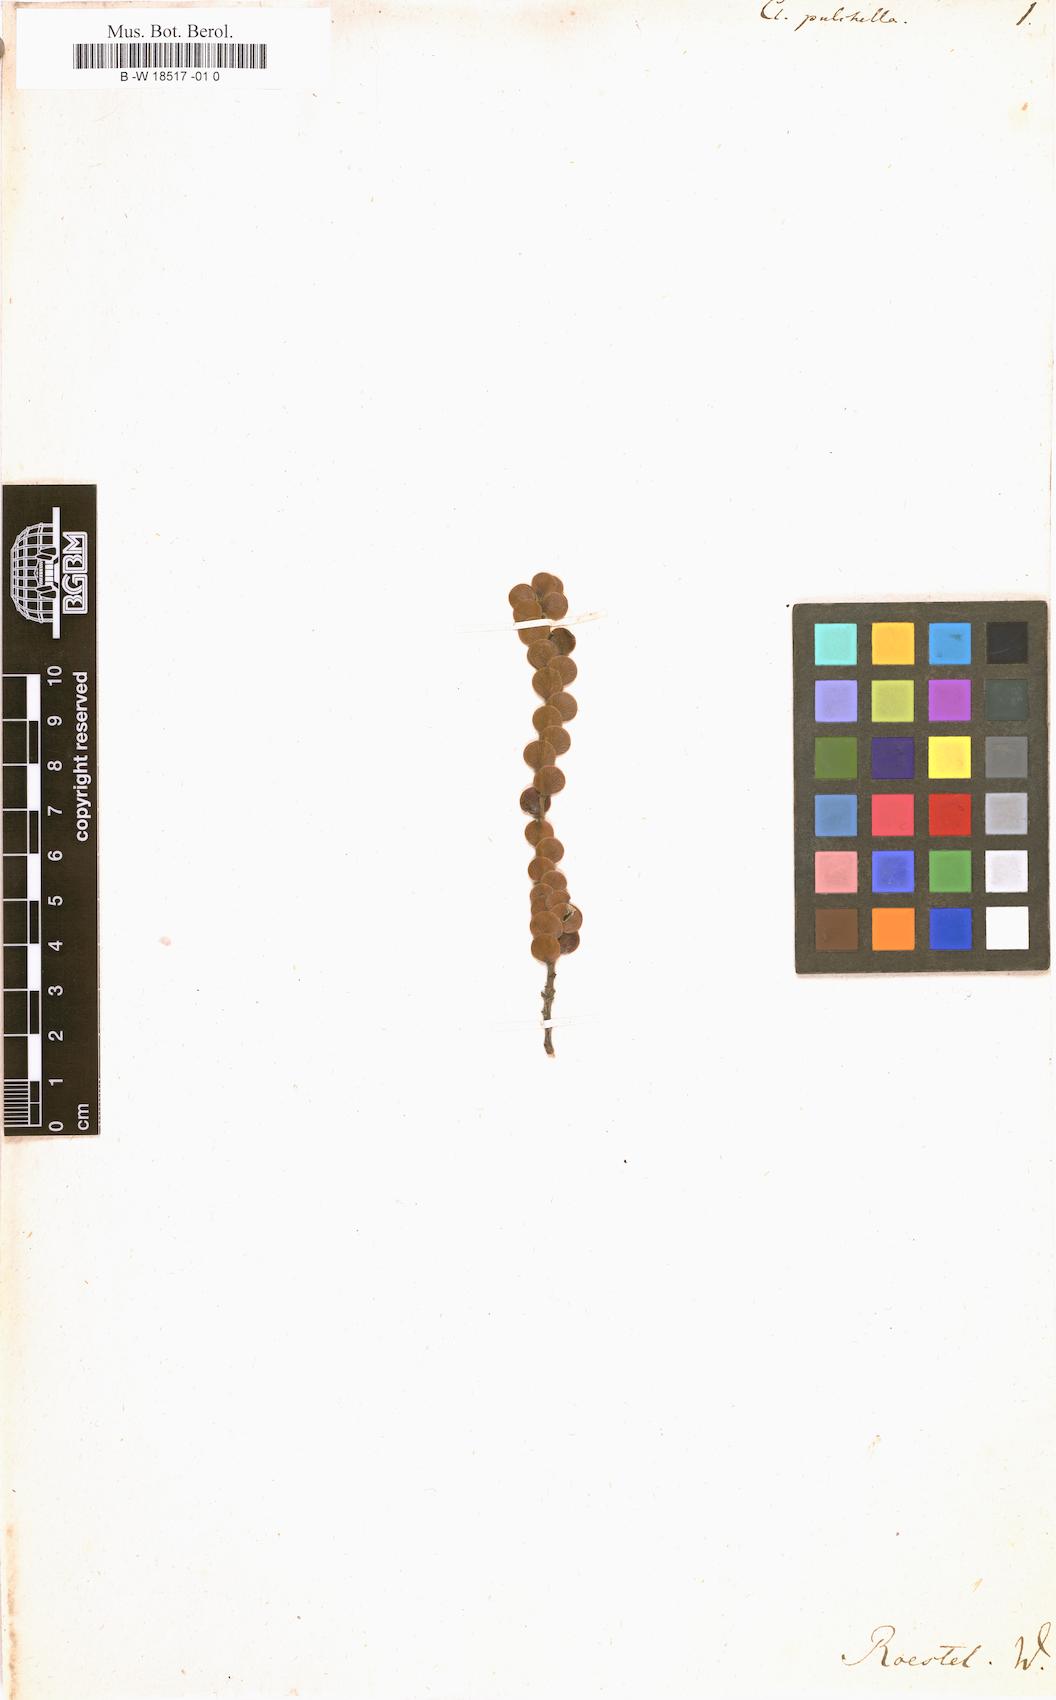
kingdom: Plantae
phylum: Tracheophyta
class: Magnoliopsida
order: Rosales
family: Rosaceae
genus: Cliffortia
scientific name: Cliffortia pulchella
